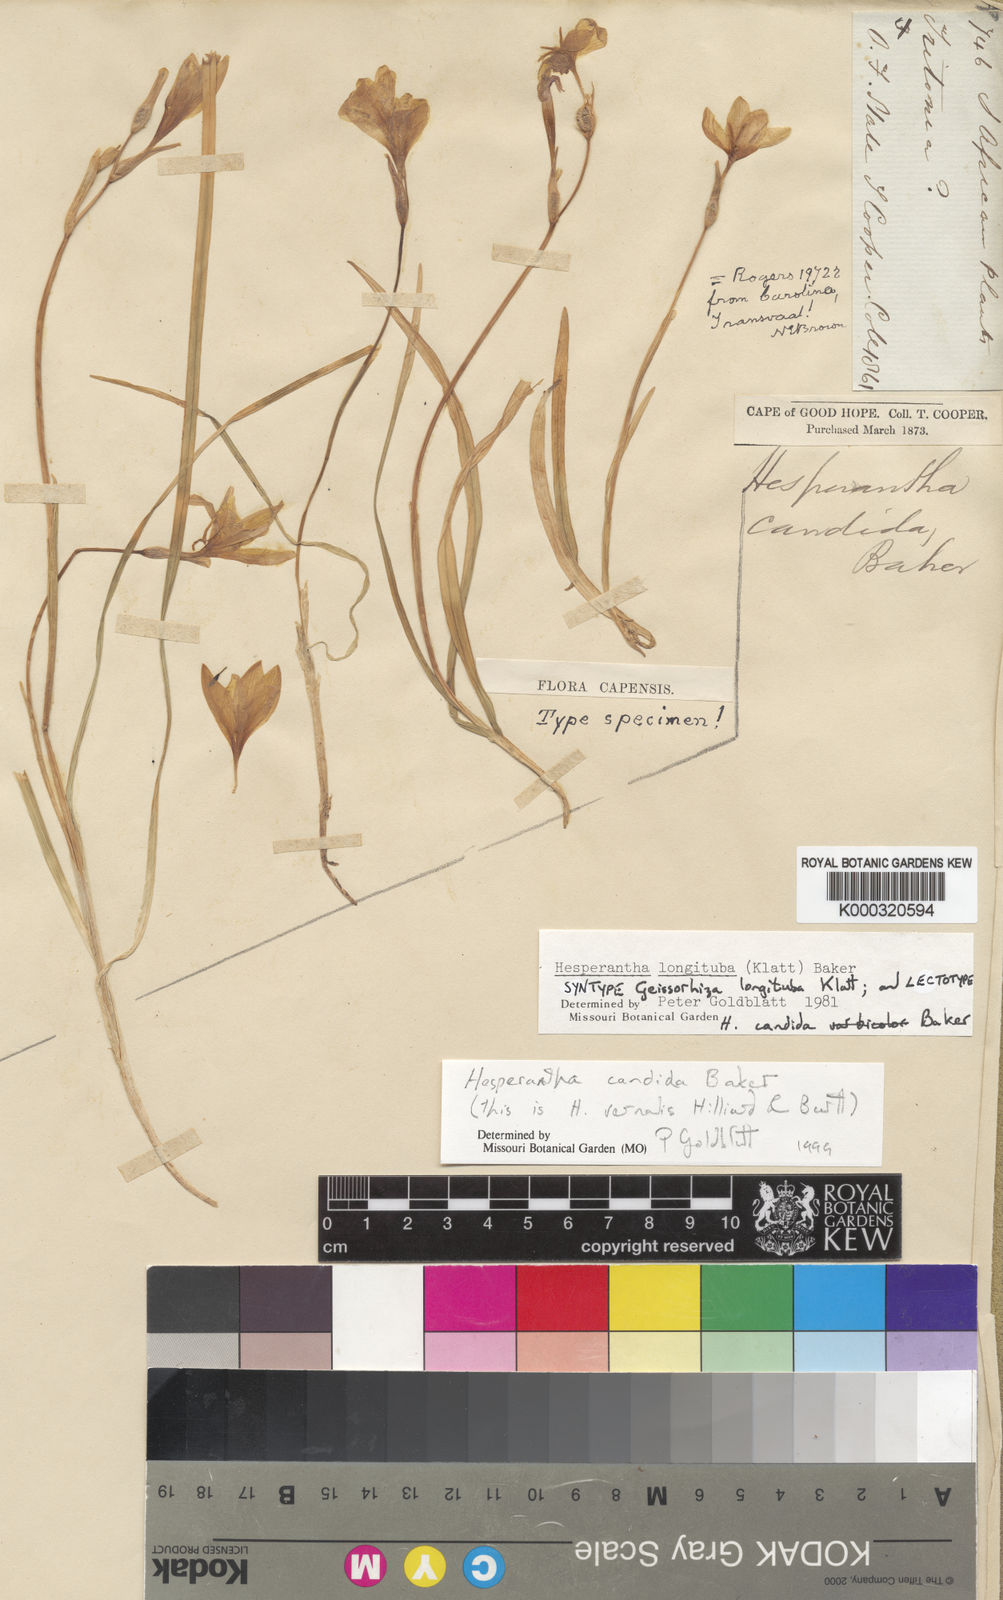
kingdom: Plantae
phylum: Tracheophyta
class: Liliopsida
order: Asparagales
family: Iridaceae
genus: Hesperantha
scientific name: Hesperantha candida
